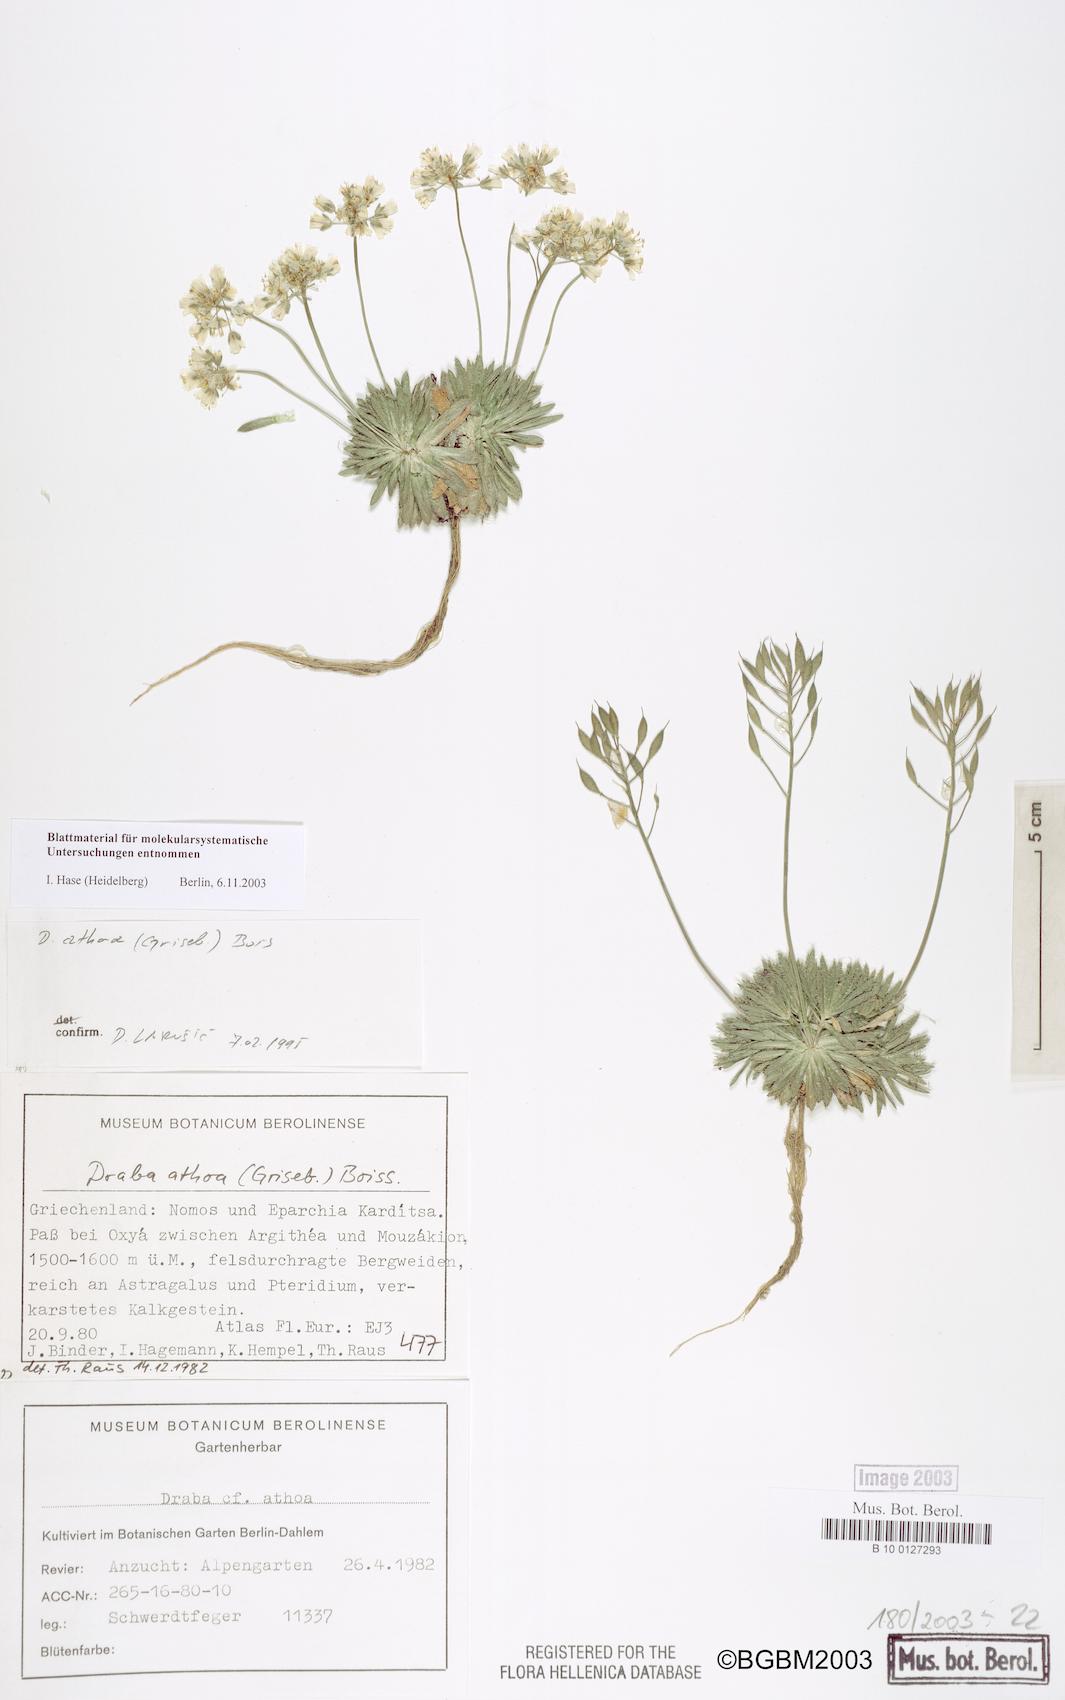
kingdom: Plantae
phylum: Tracheophyta
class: Magnoliopsida
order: Brassicales
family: Brassicaceae
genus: Draba
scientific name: Draba lasiocarpa
